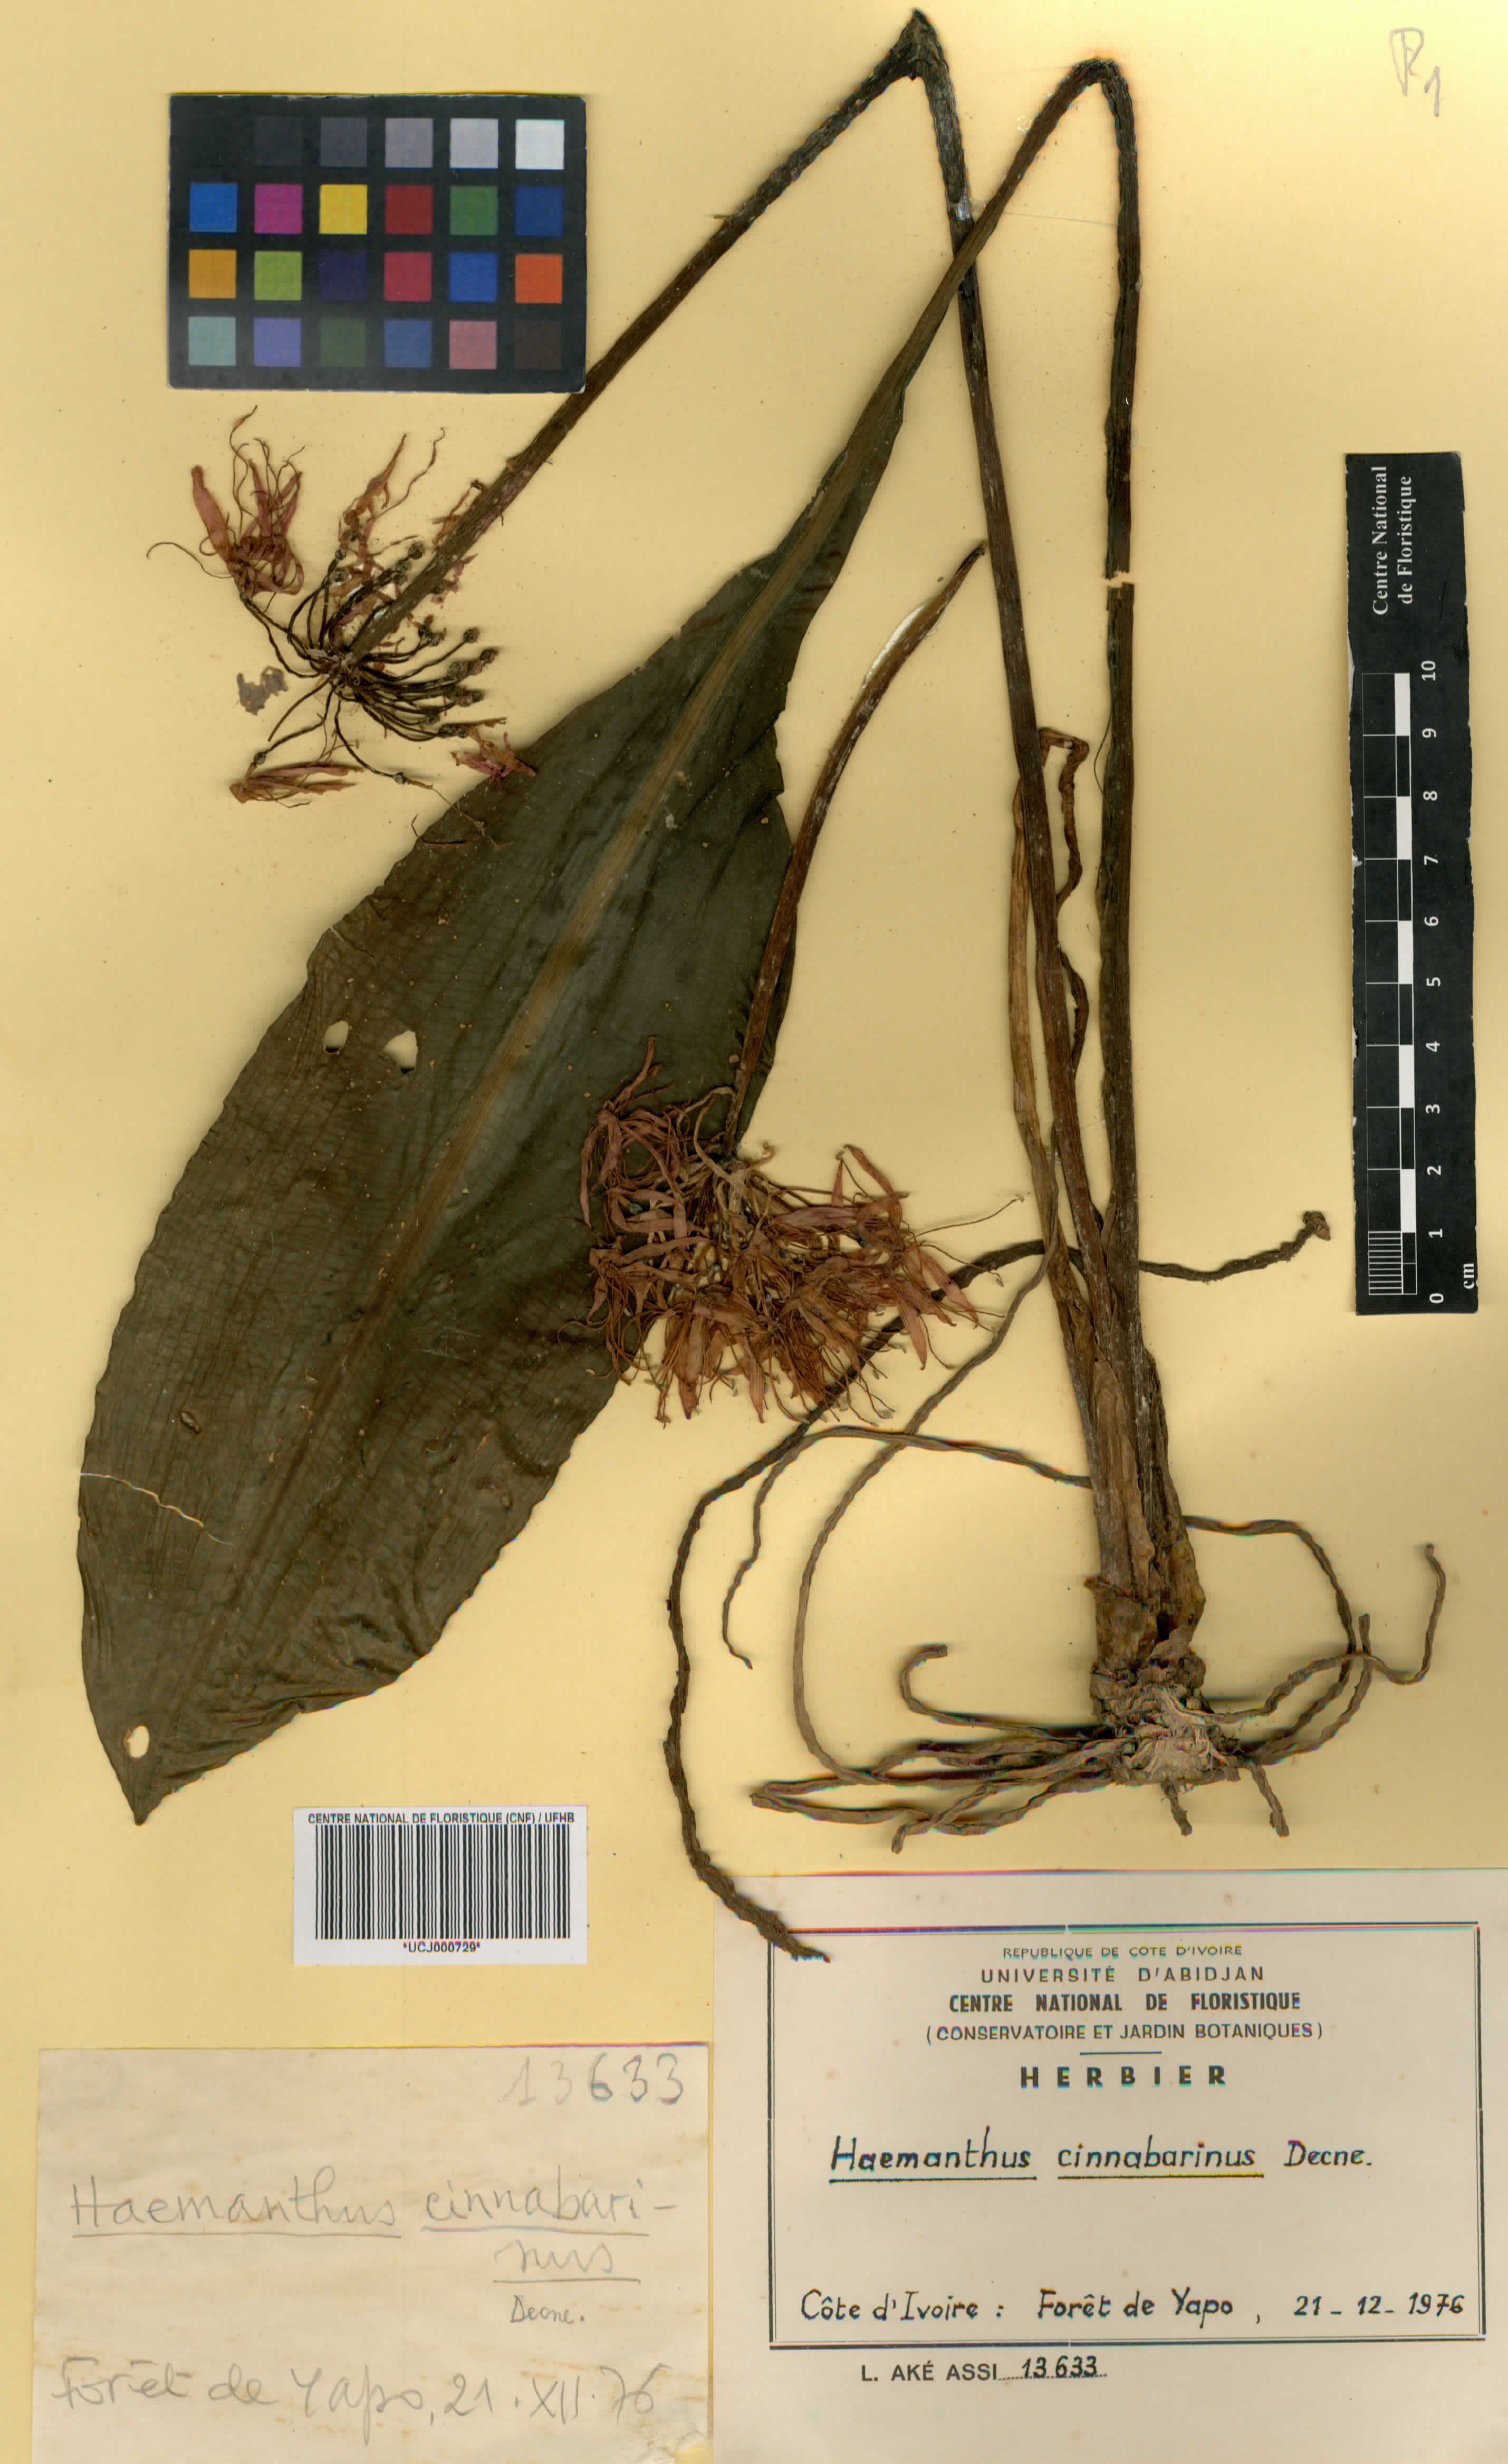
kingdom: Plantae
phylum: Tracheophyta
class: Liliopsida
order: Asparagales
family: Amaryllidaceae
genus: Scadoxus
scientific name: Scadoxus cinnabarinus
